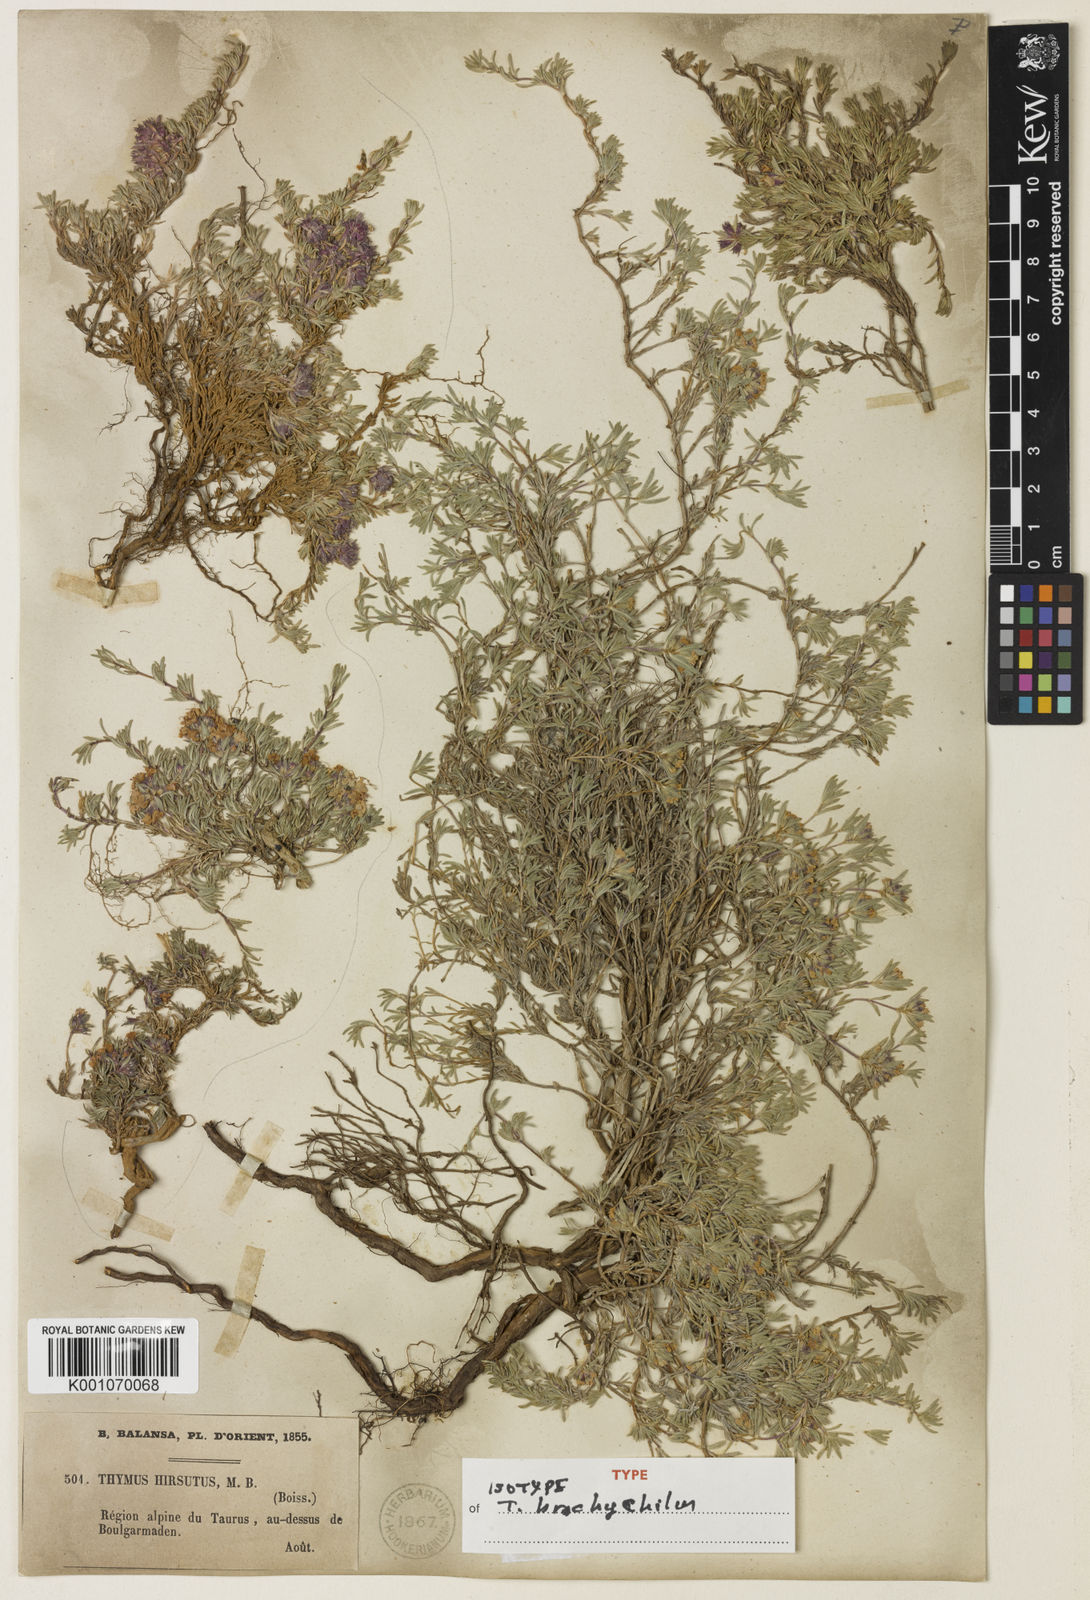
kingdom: Plantae
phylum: Tracheophyta
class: Magnoliopsida
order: Lamiales
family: Lamiaceae
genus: Thymus
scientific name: Thymus brachychilus
